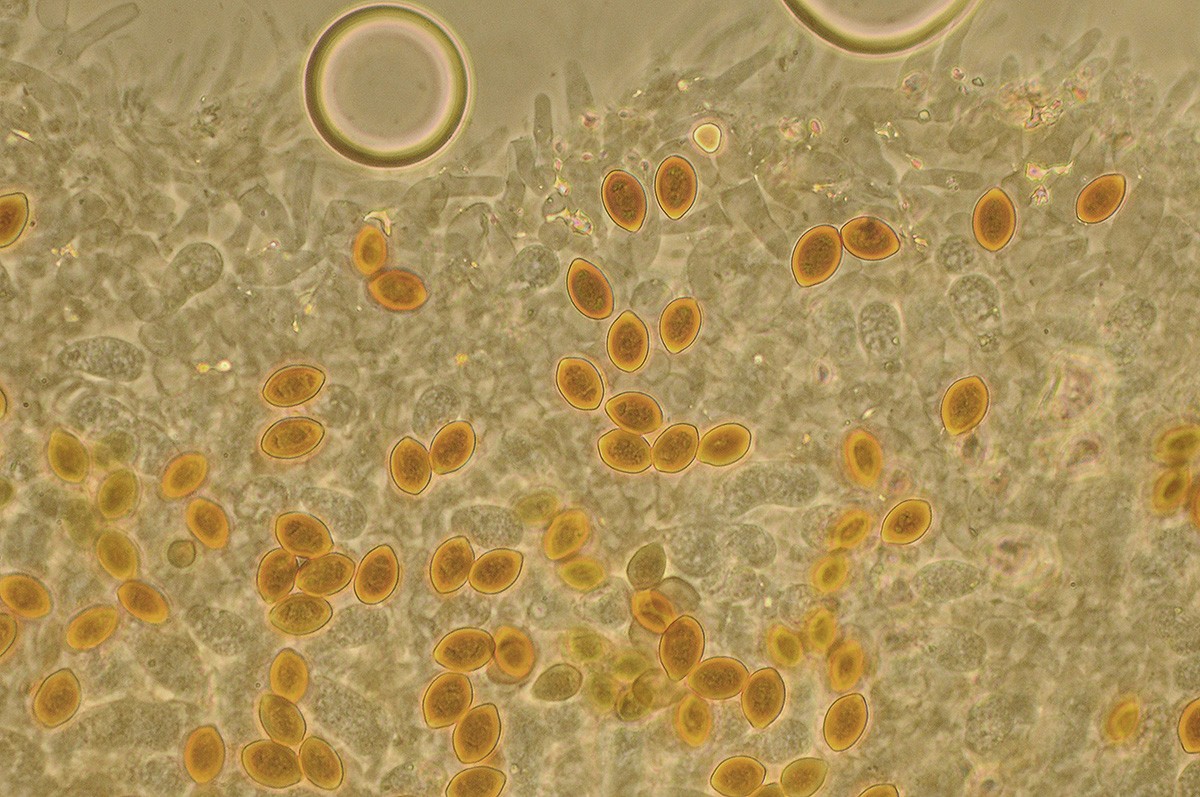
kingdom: Fungi
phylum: Basidiomycota
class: Agaricomycetes
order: Agaricales
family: Strophariaceae
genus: Deconica
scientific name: Deconica coprophila
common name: gødnings-stråhat
